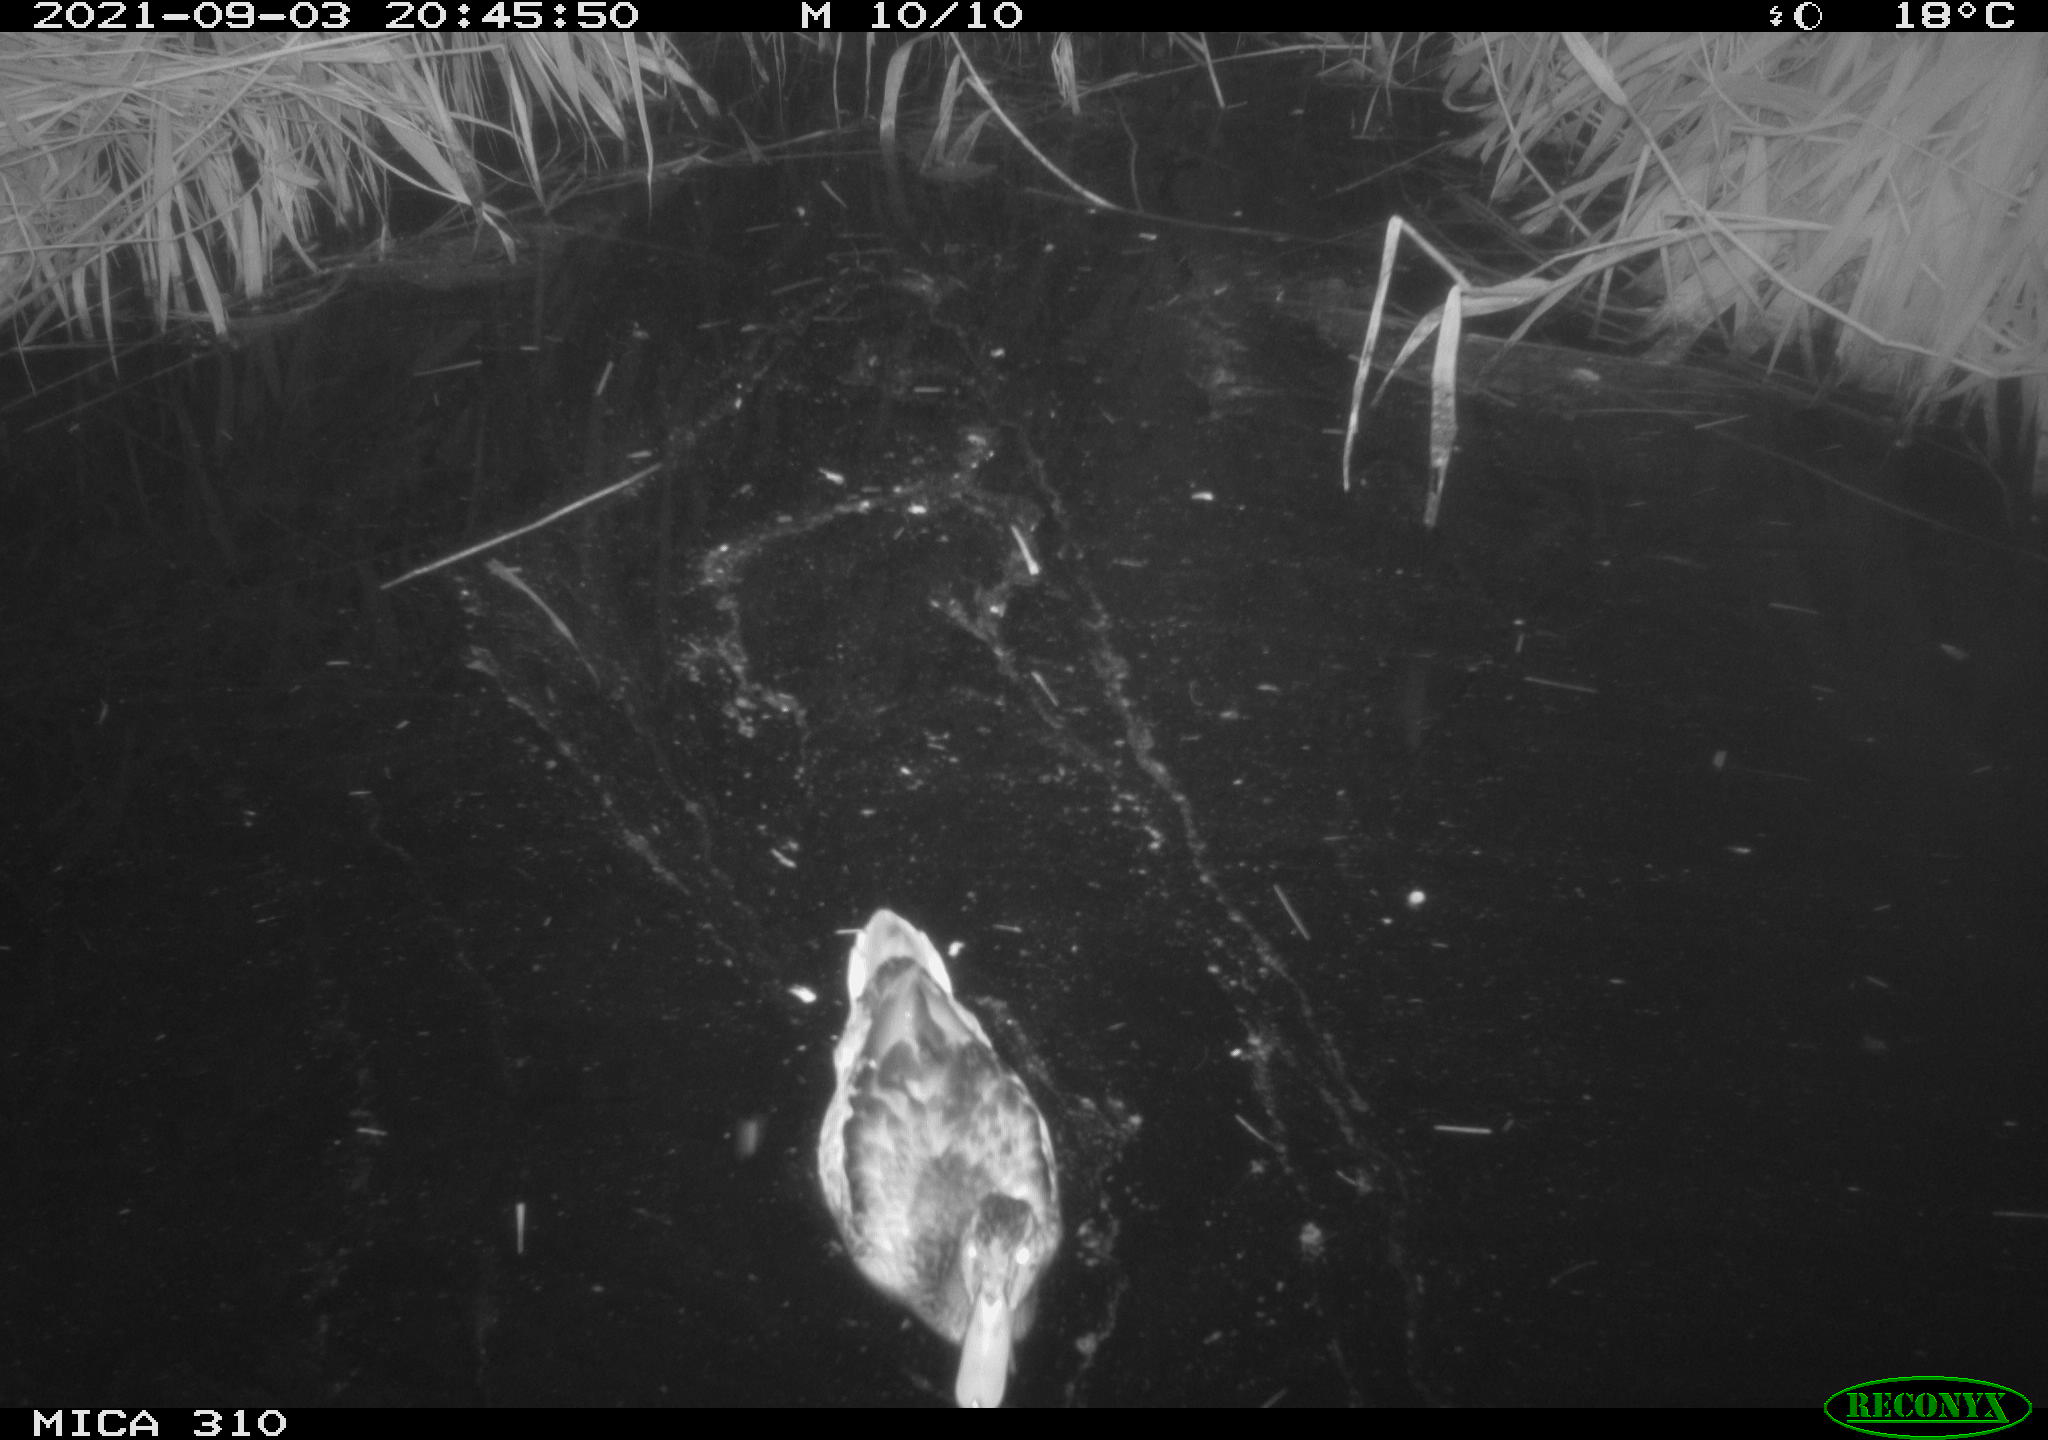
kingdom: Animalia
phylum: Chordata
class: Aves
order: Anseriformes
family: Anatidae
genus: Anas
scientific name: Anas platyrhynchos
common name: Mallard
